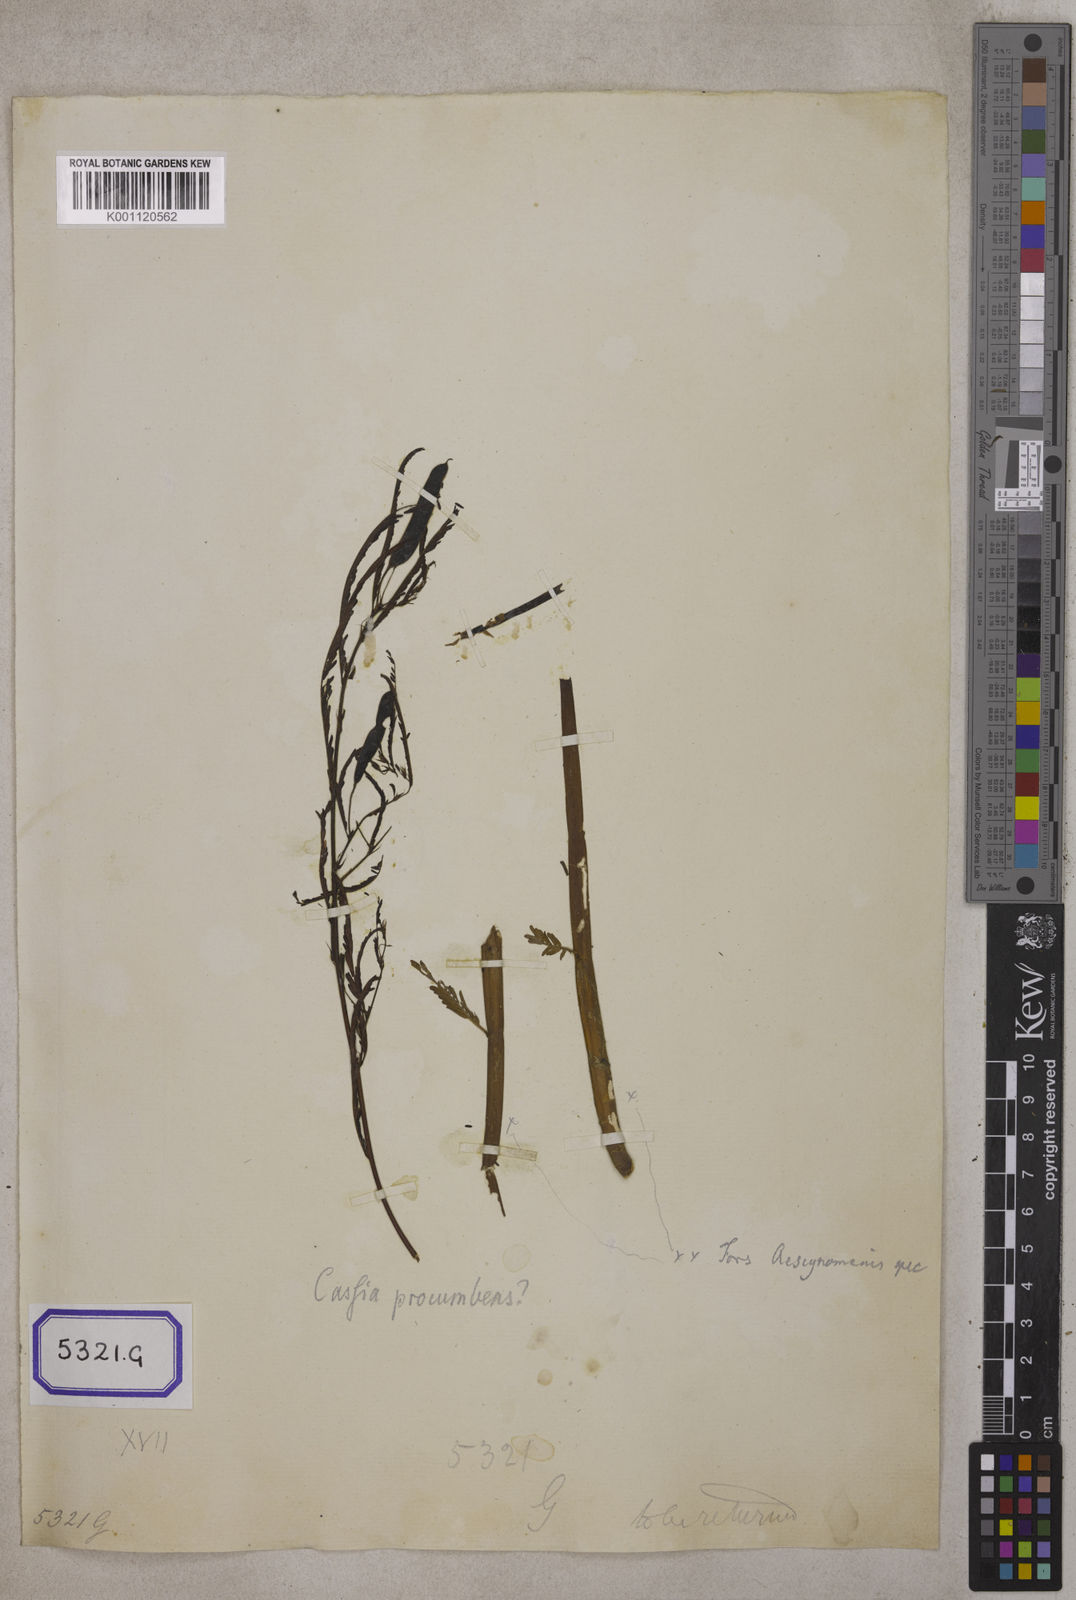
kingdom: Plantae
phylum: Tracheophyta
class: Magnoliopsida
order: Fabales
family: Fabaceae
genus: Chamaecrista
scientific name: Chamaecrista mimosoides
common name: Fish-bone cassia
